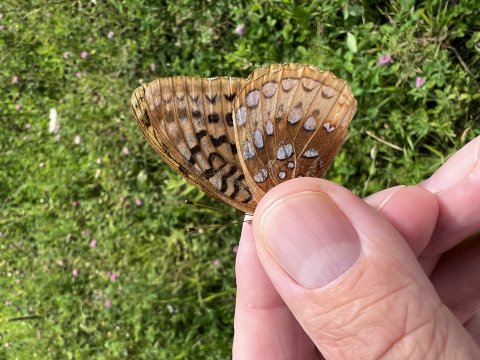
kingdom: Animalia
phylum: Arthropoda
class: Insecta
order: Lepidoptera
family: Nymphalidae
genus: Speyeria
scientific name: Speyeria cybele
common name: Great Spangled Fritillary
